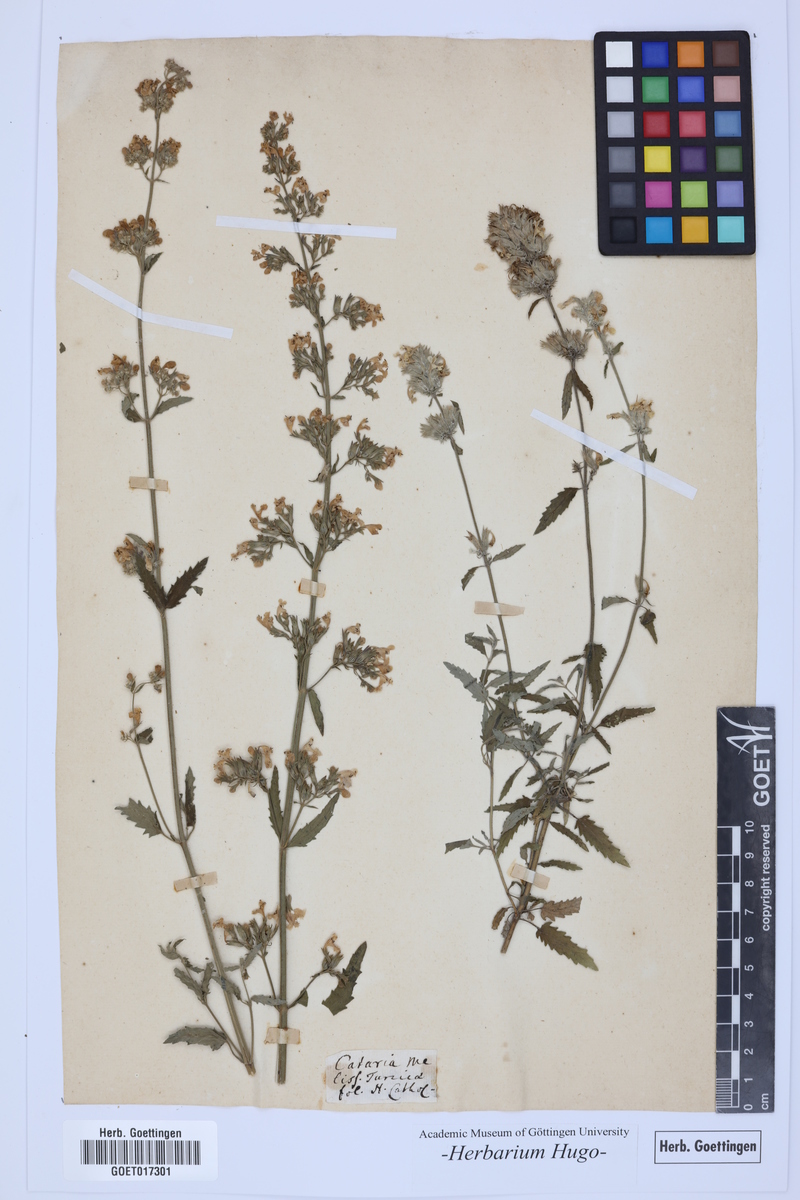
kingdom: Plantae
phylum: Tracheophyta
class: Magnoliopsida
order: Lamiales
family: Lamiaceae
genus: Cataria
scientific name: Cataria
